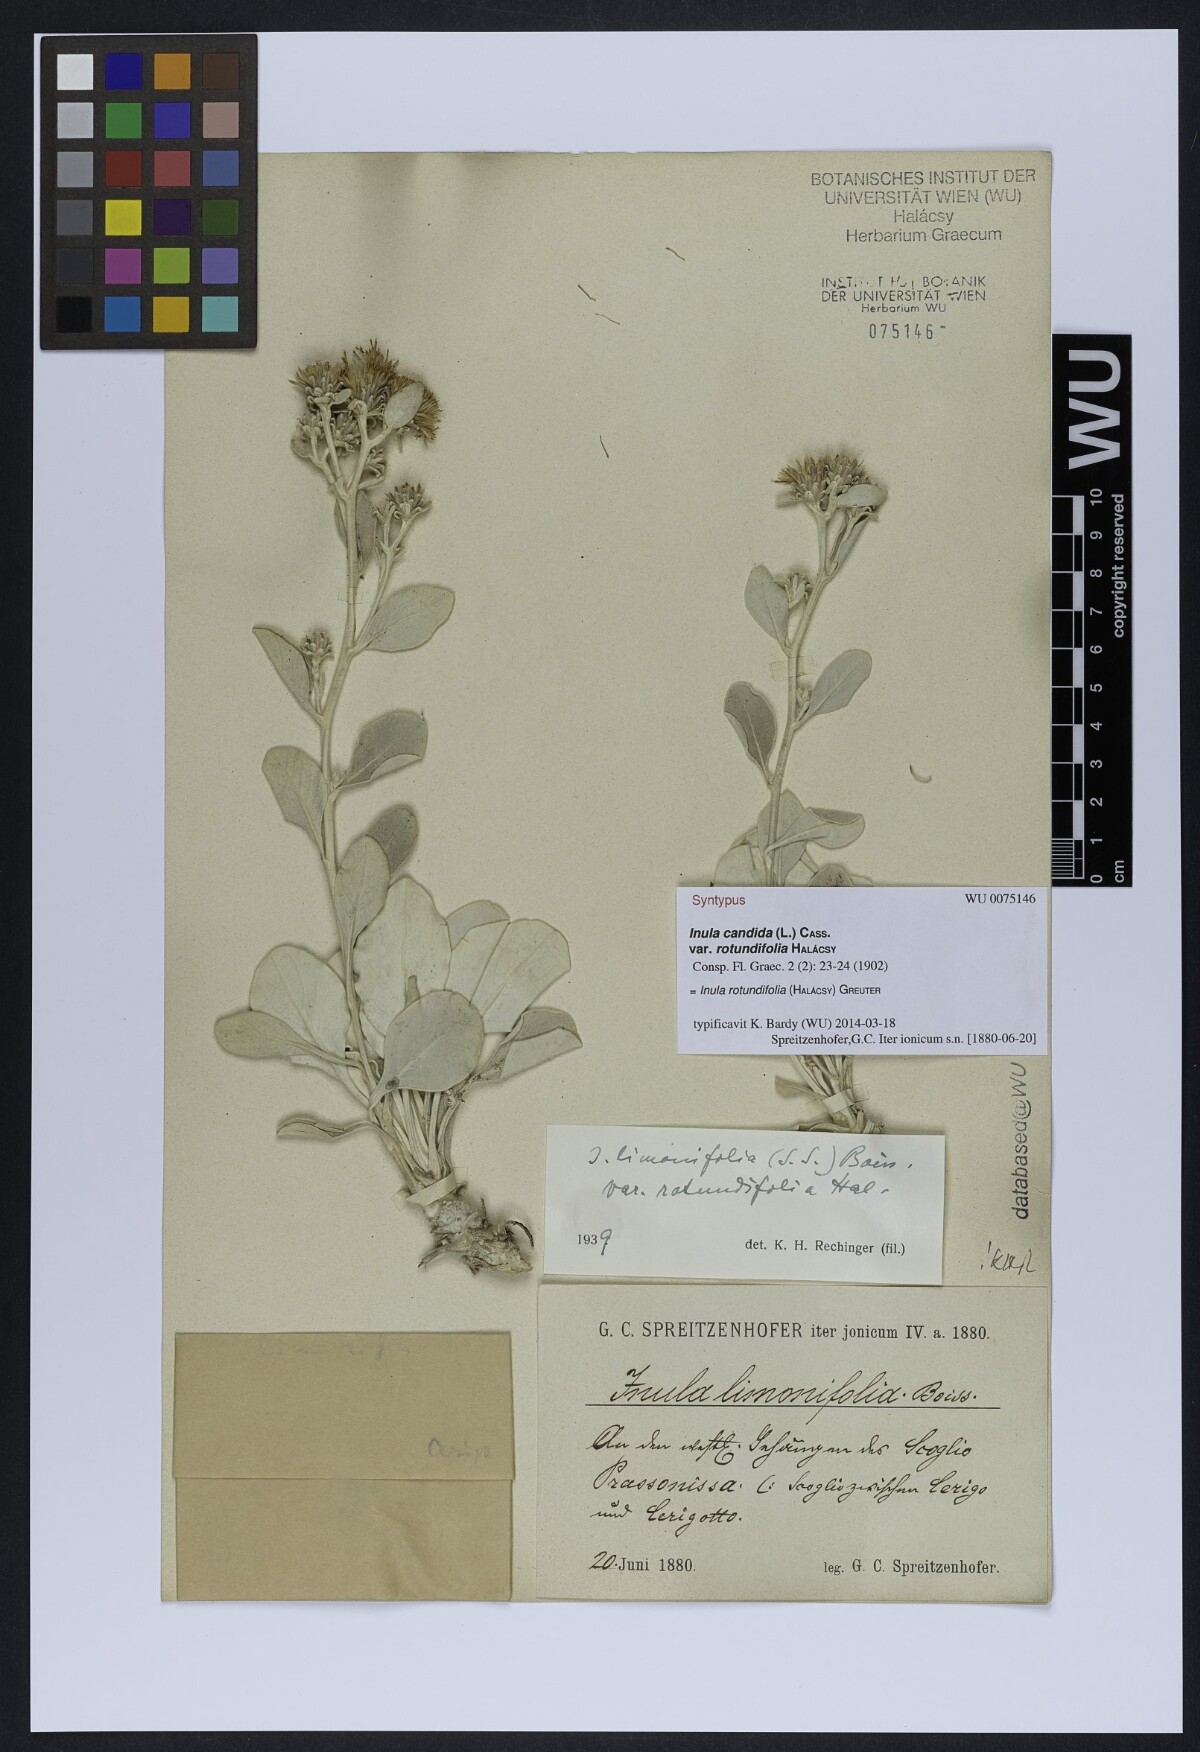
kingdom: Plantae
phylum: Tracheophyta
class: Magnoliopsida
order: Asterales
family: Asteraceae
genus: Inula
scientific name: Inula candida
